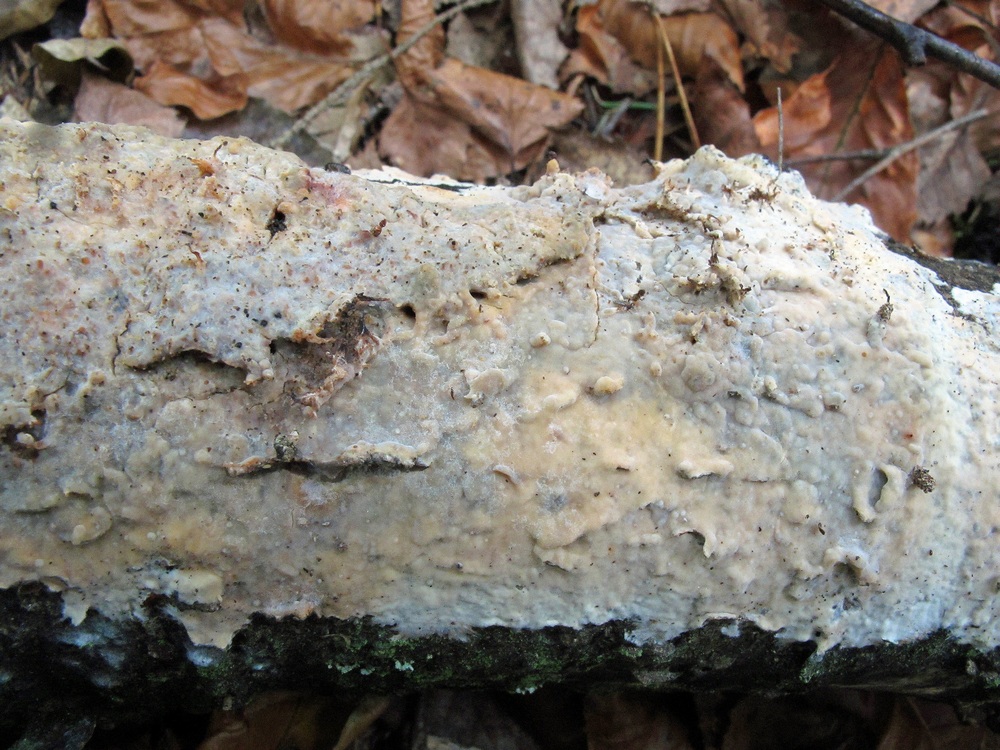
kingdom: Fungi
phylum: Basidiomycota
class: Agaricomycetes
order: Polyporales
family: Phanerochaetaceae
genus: Phanerochaete
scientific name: Phanerochaete velutina
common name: dunet randtråd
